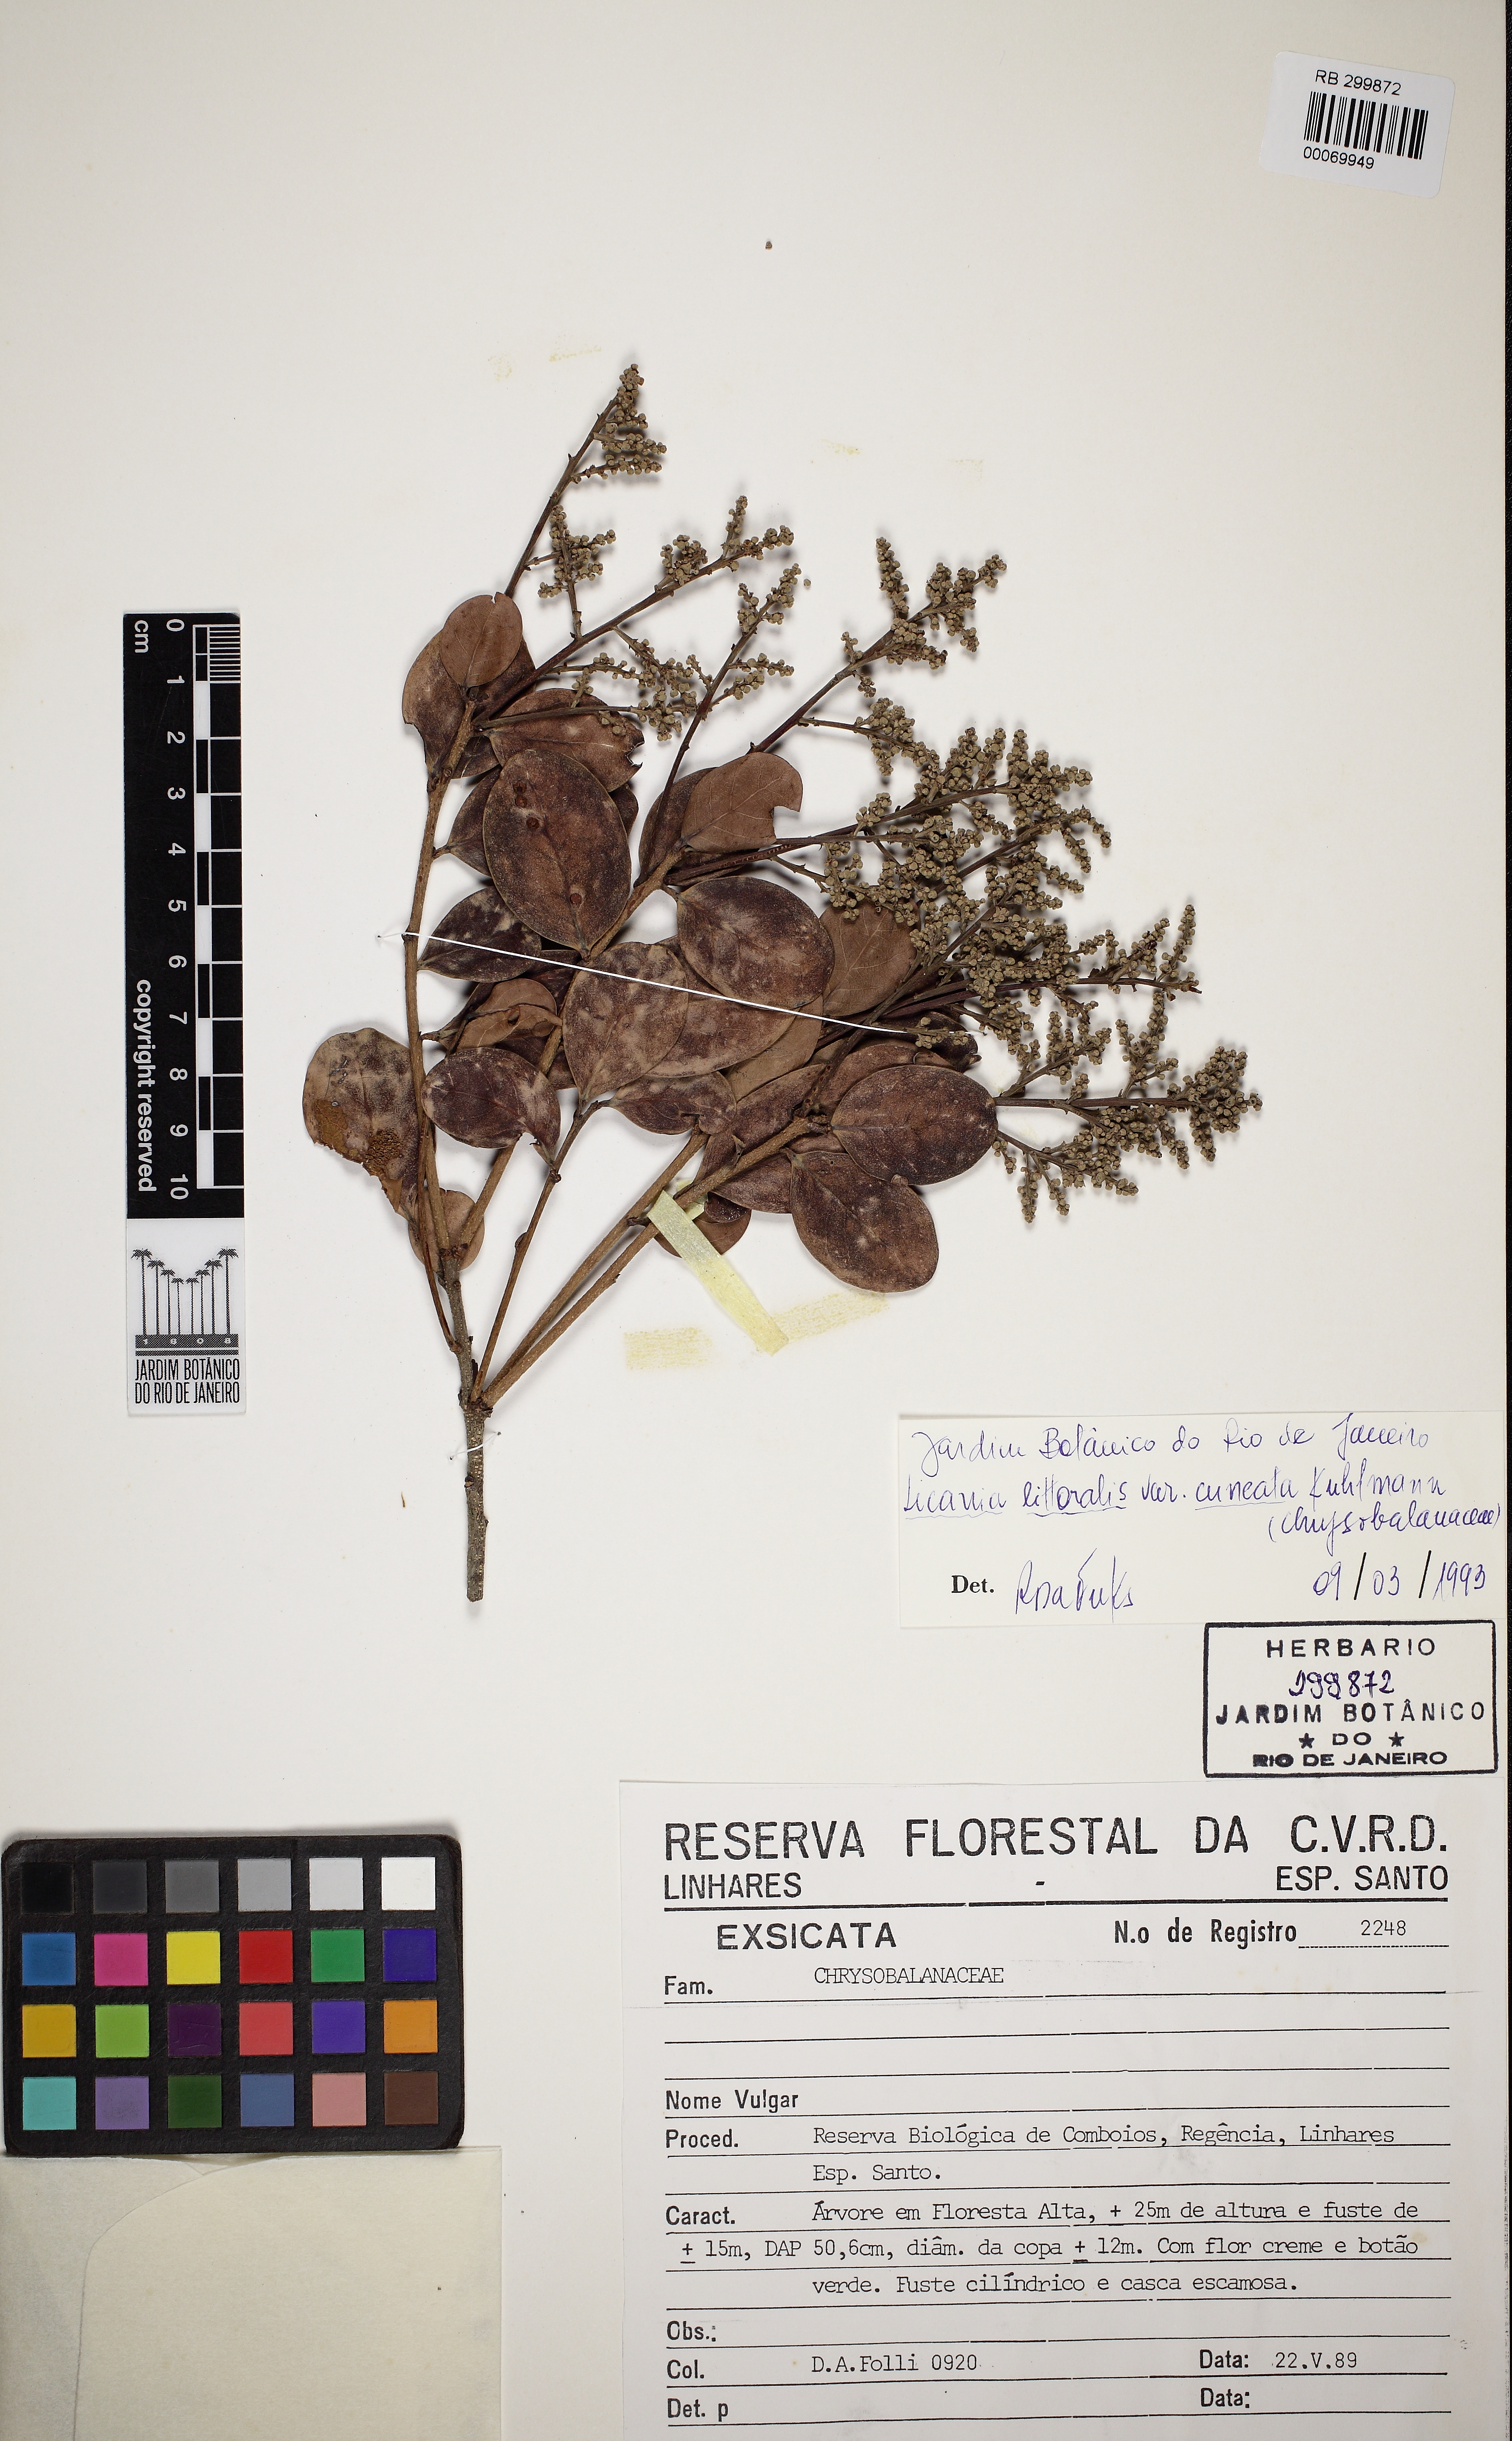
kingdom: Plantae
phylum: Tracheophyta
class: Magnoliopsida
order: Malpighiales
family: Chrysobalanaceae
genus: Licania
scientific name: Licania littoralis
